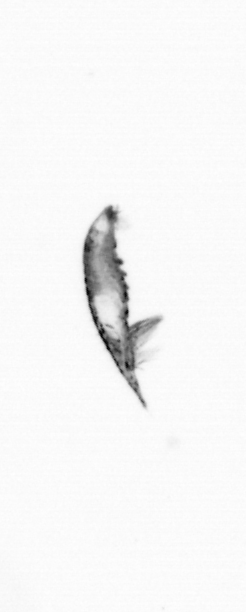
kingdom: Animalia
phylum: Arthropoda
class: Copepoda
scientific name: Copepoda
